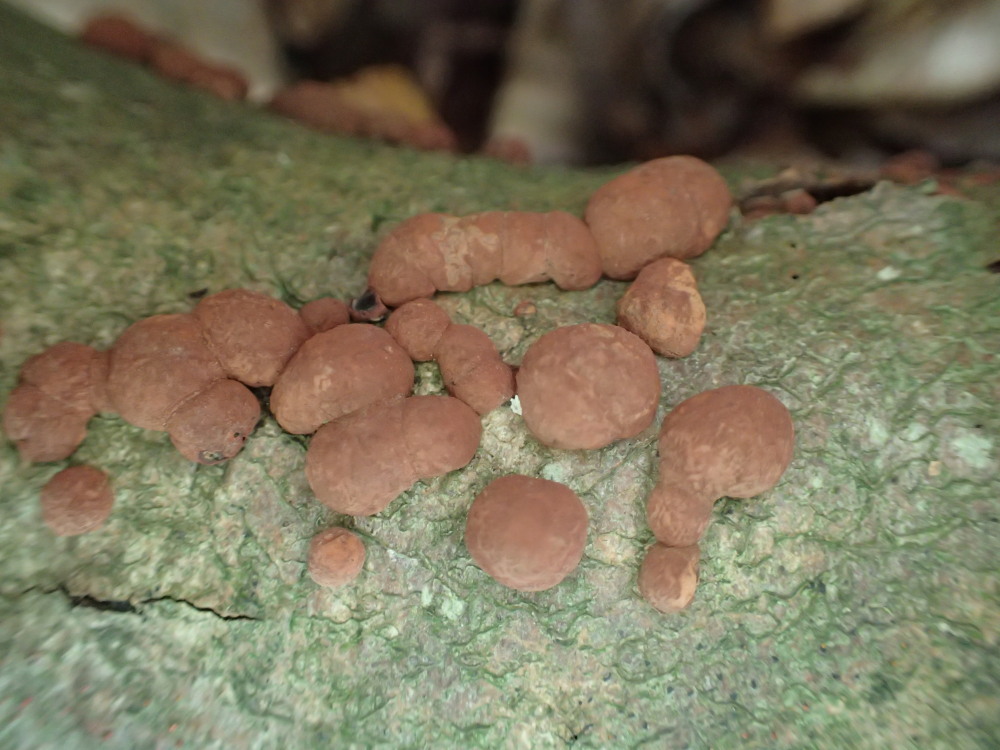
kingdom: Fungi
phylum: Ascomycota
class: Sordariomycetes
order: Xylariales
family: Hypoxylaceae
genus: Hypoxylon
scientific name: Hypoxylon fragiforme
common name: kuljordbær
